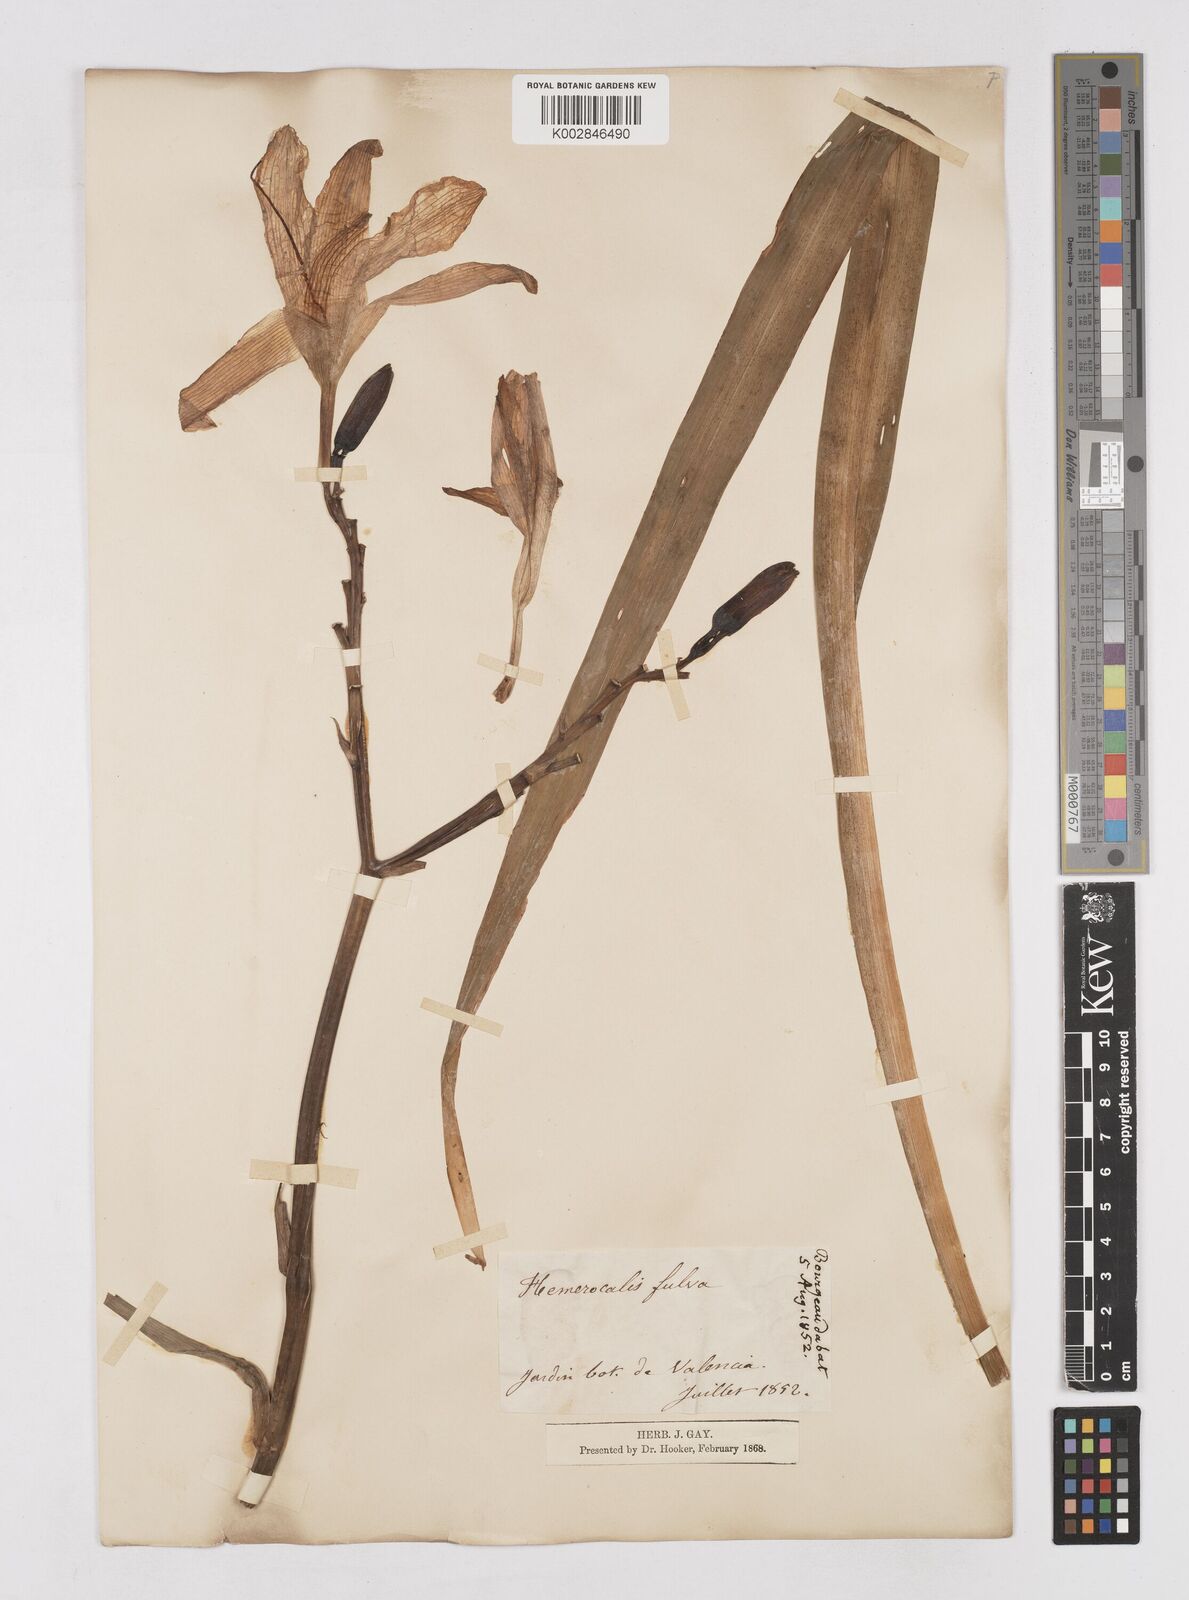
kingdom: Plantae
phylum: Tracheophyta
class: Liliopsida
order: Asparagales
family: Asphodelaceae
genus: Hemerocallis
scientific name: Hemerocallis lilioasphodelus
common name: Yellow day-lily
